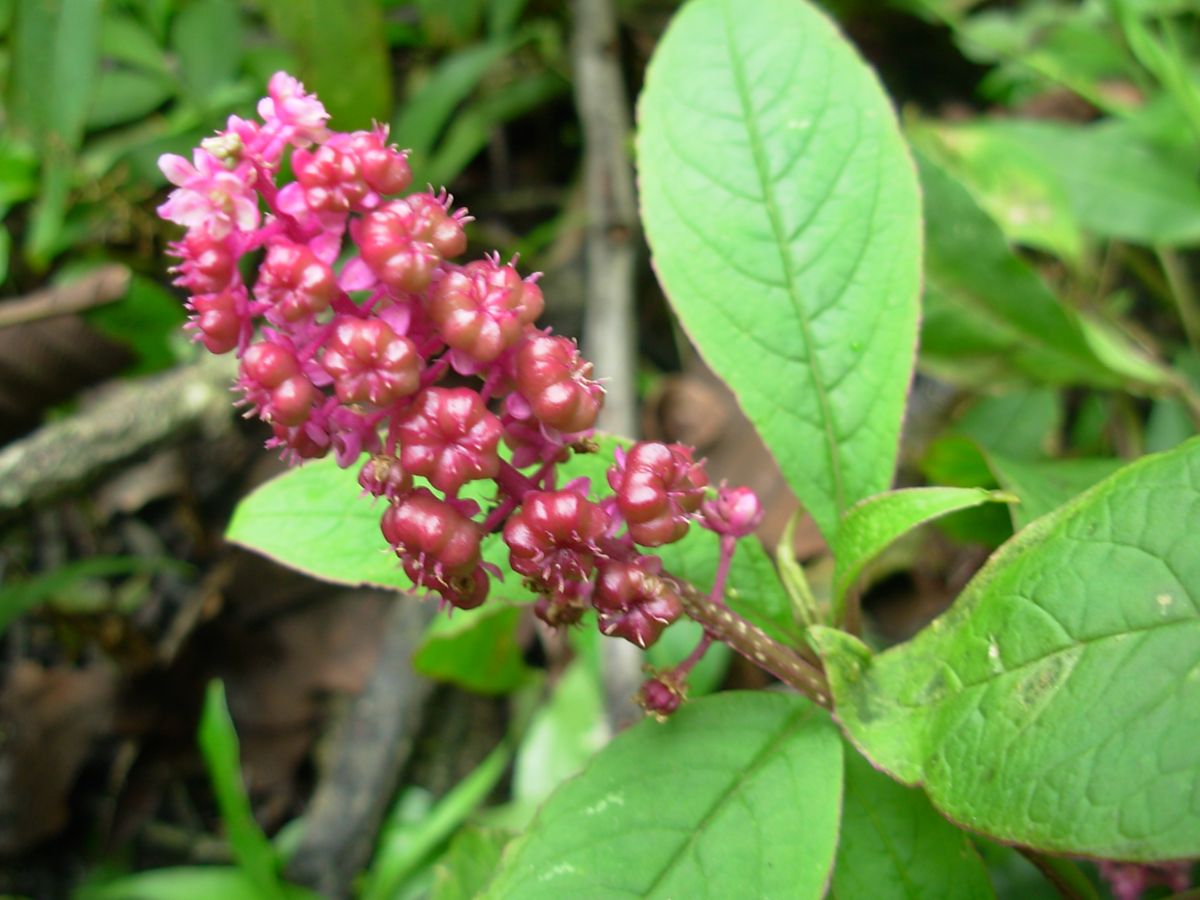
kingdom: Plantae
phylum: Tracheophyta
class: Magnoliopsida
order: Caryophyllales
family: Phytolaccaceae
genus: Phytolacca
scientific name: Phytolacca icosandra
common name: Button pokeweed
